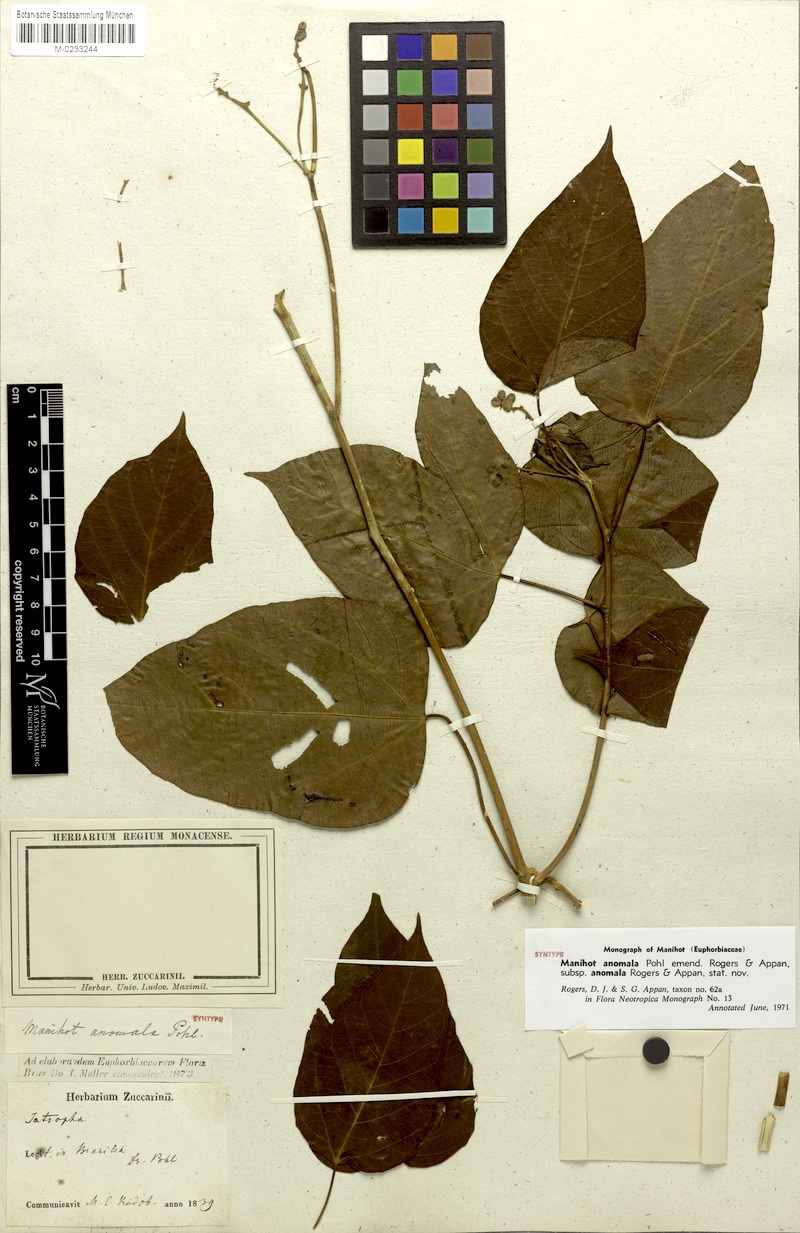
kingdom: Plantae
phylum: Tracheophyta
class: Magnoliopsida
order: Malpighiales
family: Euphorbiaceae
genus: Manihot
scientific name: Manihot anomala
